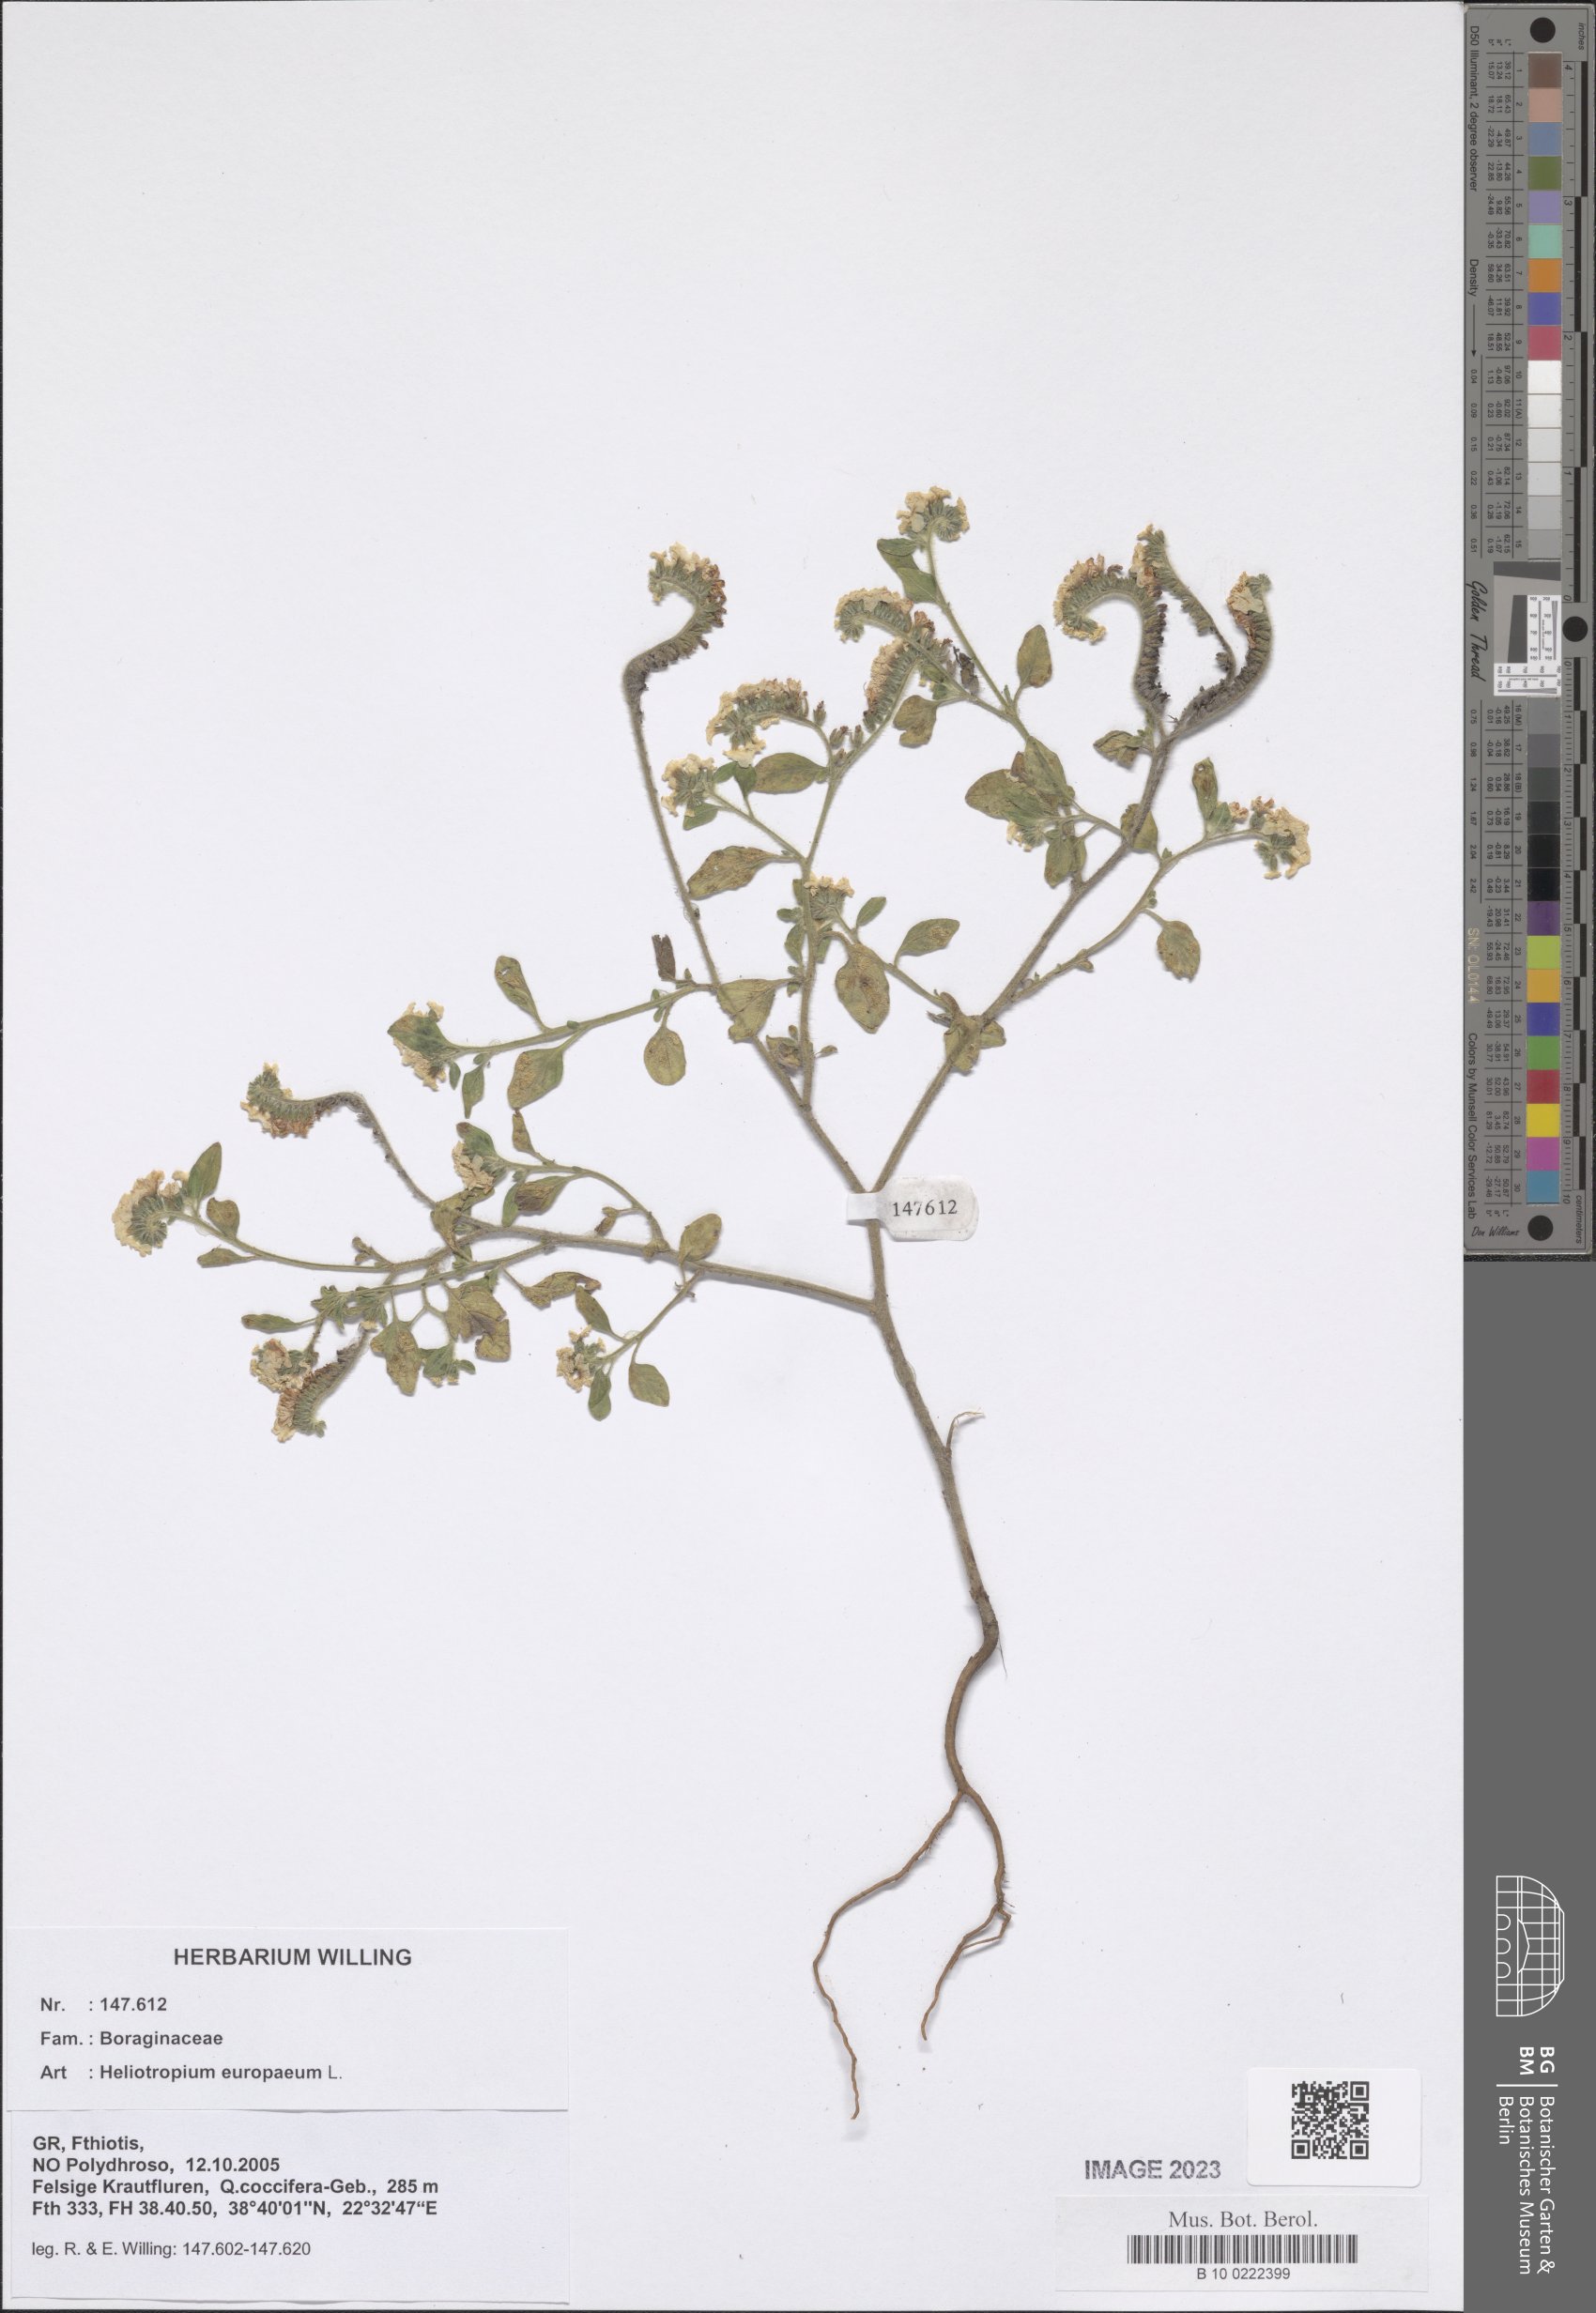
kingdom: Plantae
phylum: Tracheophyta
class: Magnoliopsida
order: Boraginales
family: Heliotropiaceae
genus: Heliotropium
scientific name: Heliotropium europaeum
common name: European heliotrope
